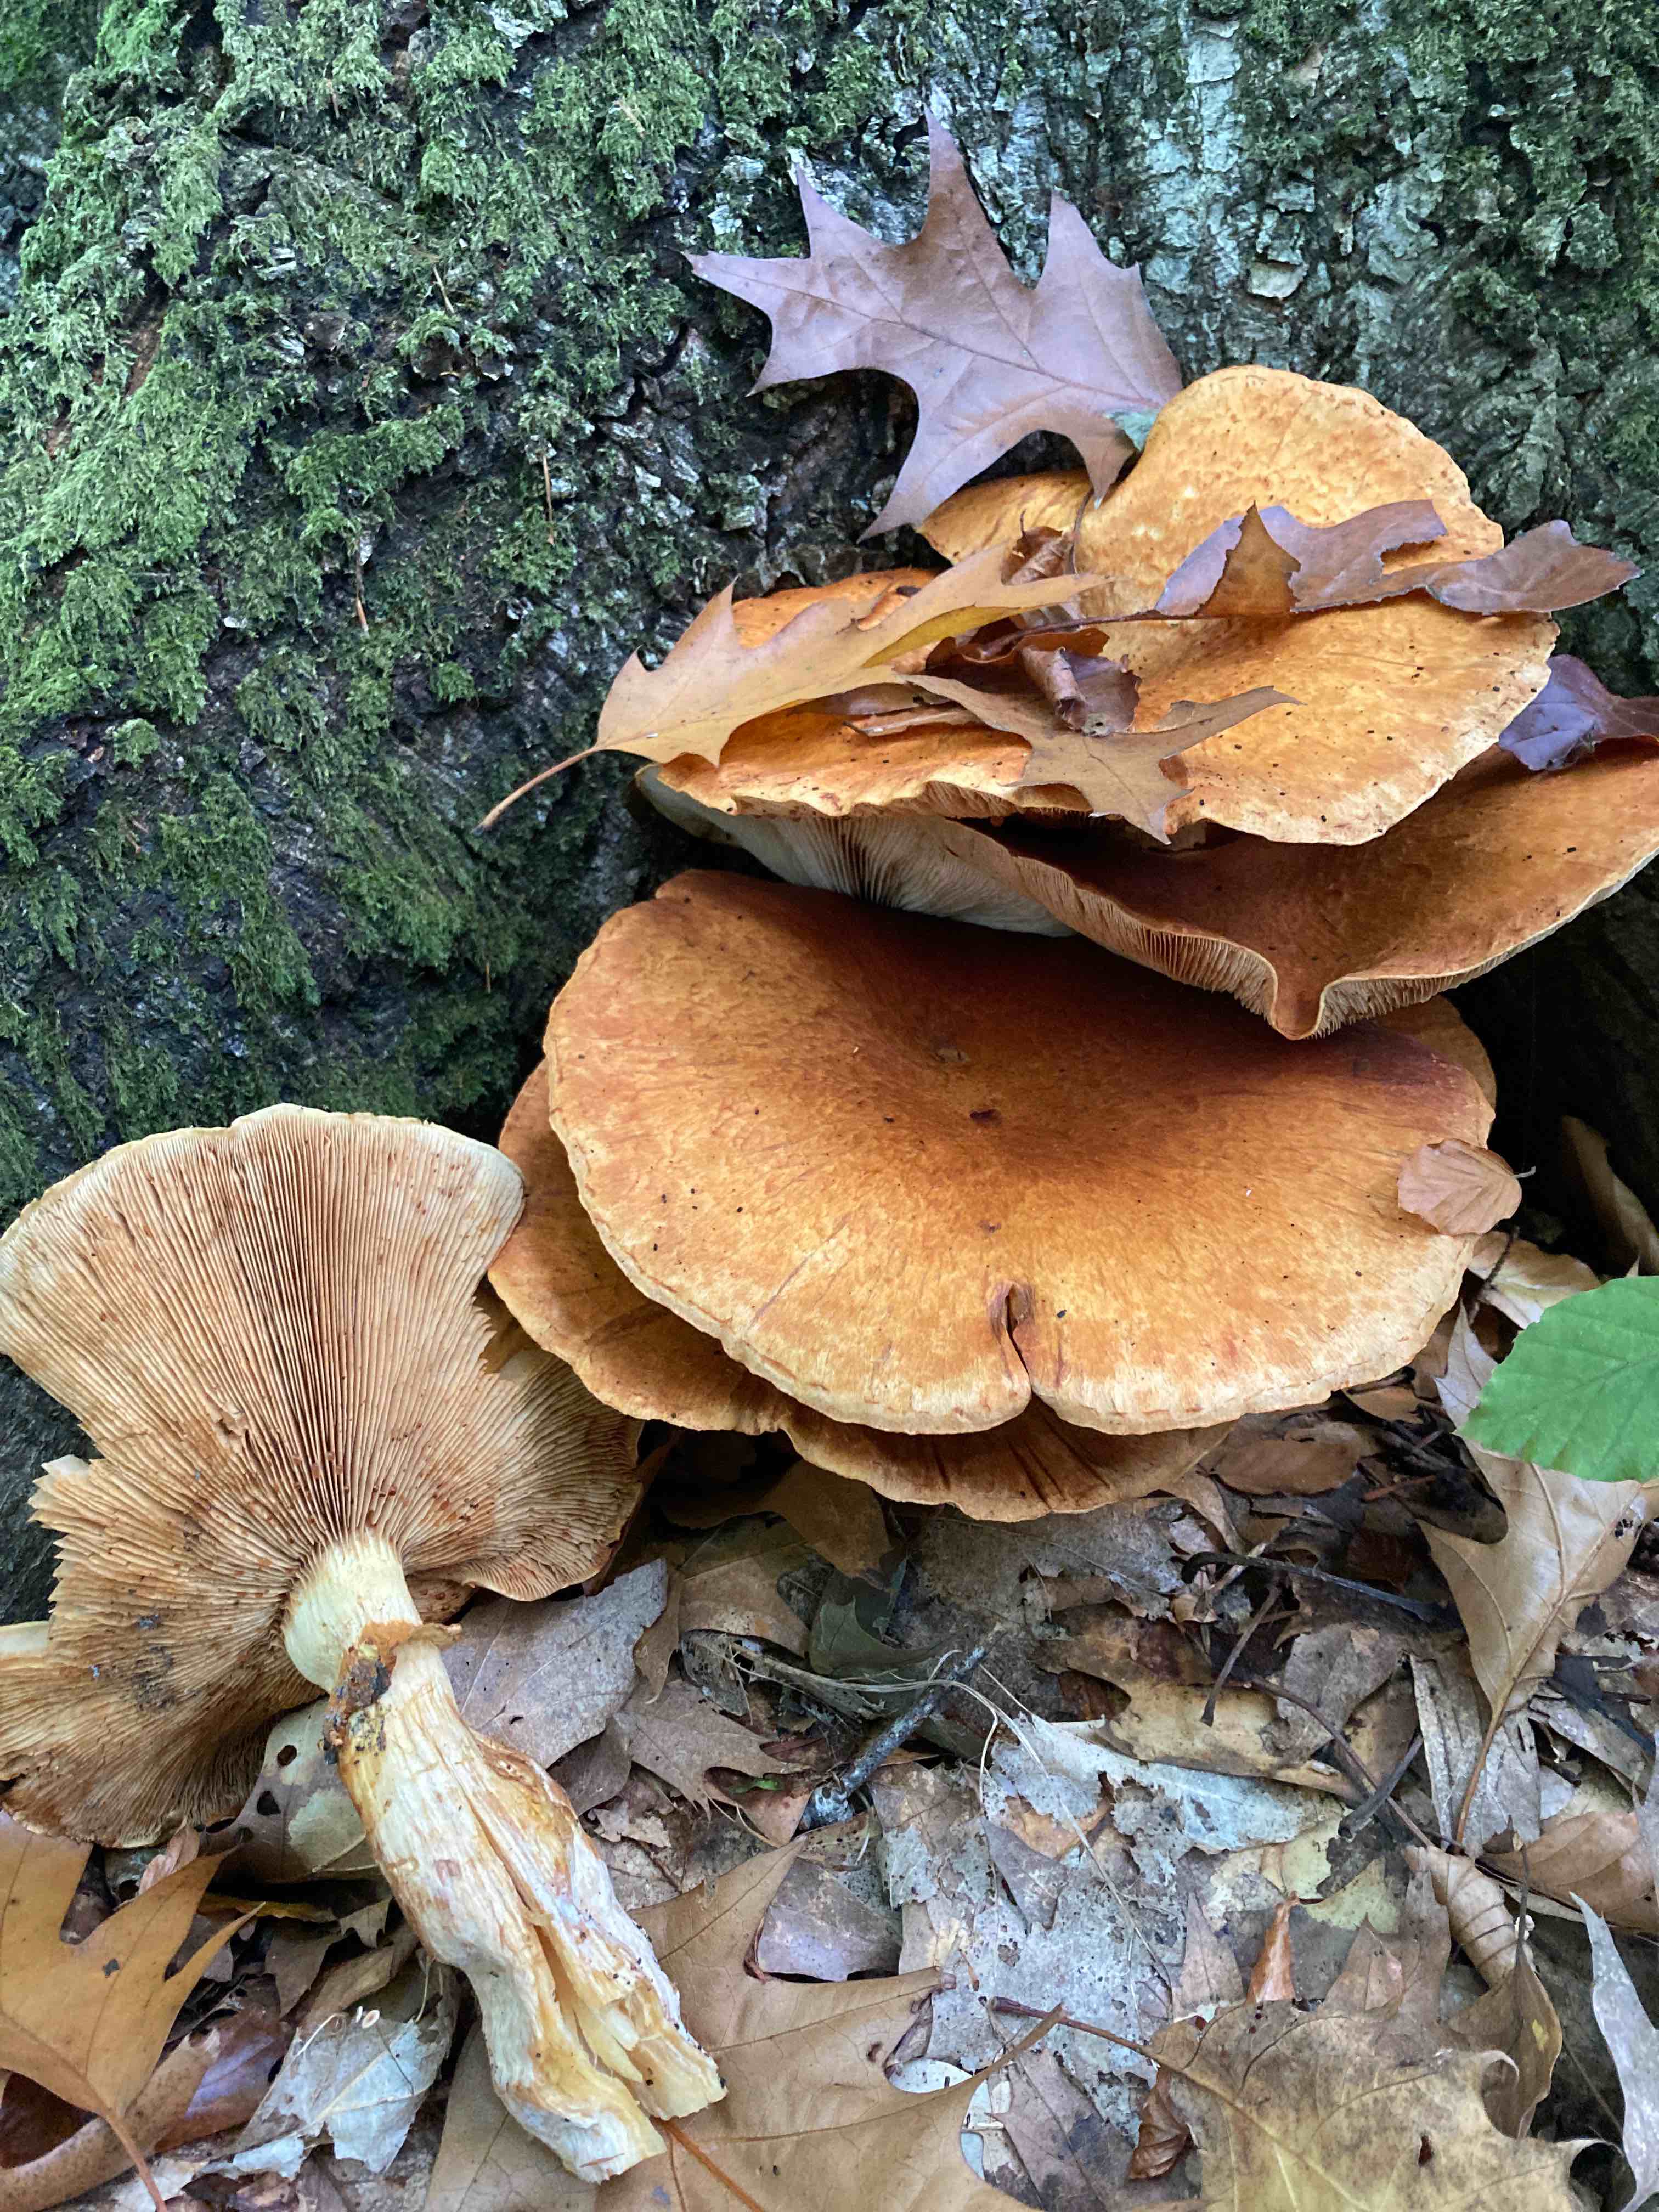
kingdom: Fungi
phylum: Basidiomycota
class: Agaricomycetes
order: Agaricales
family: Hymenogastraceae
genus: Gymnopilus
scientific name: Gymnopilus spectabilis
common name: fibret flammehat
